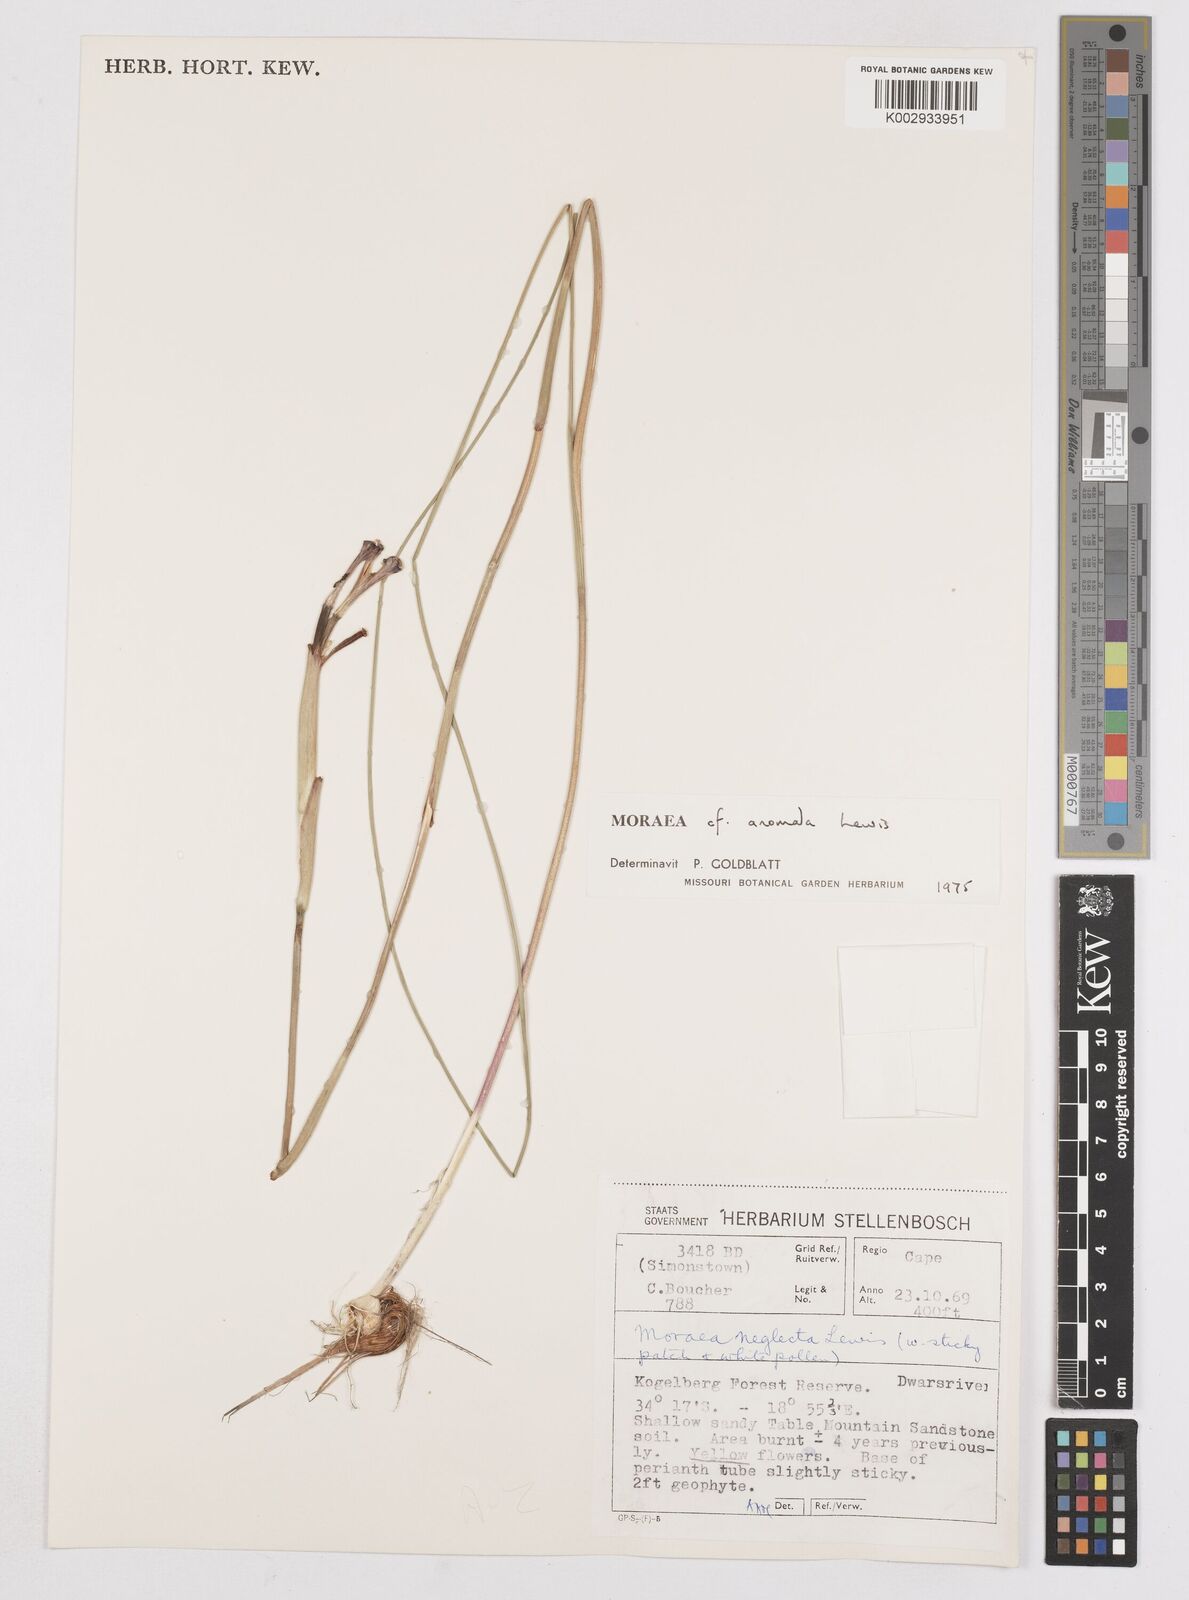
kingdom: Plantae
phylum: Tracheophyta
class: Liliopsida
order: Asparagales
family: Iridaceae
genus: Moraea
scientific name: Moraea anomala
